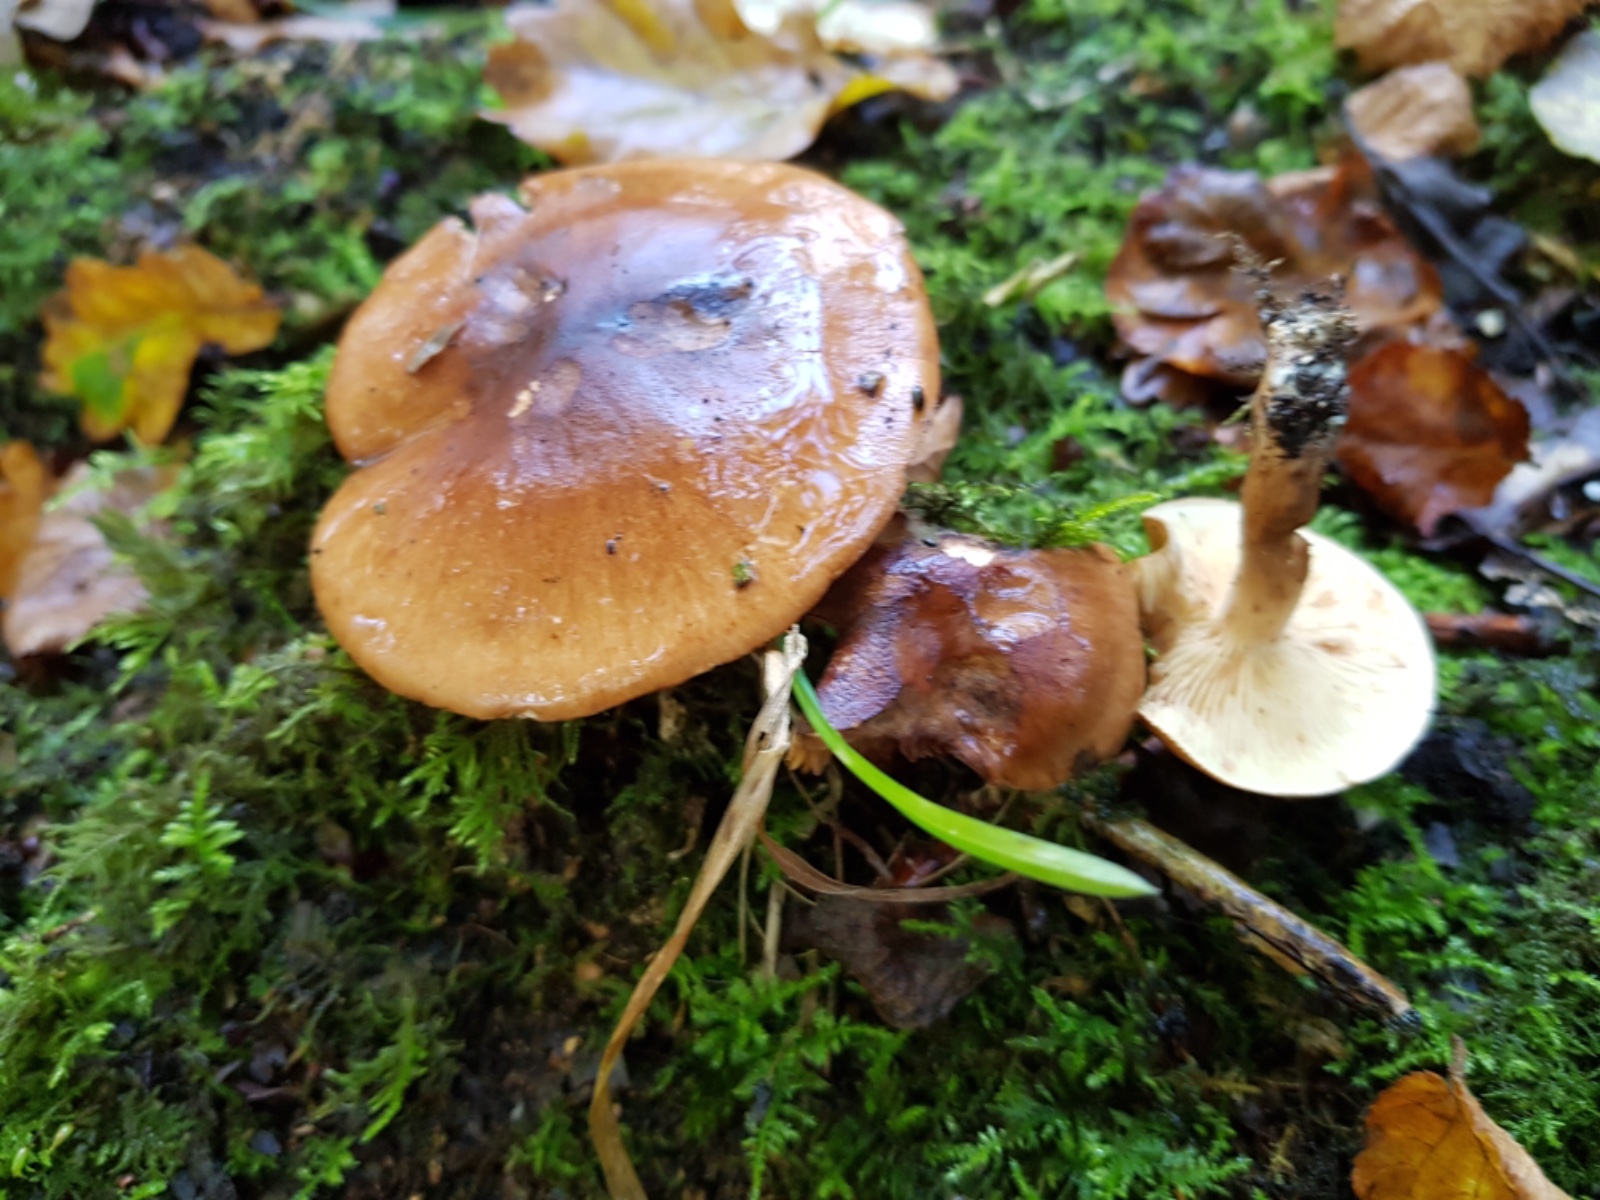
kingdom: Fungi
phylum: Basidiomycota
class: Agaricomycetes
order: Agaricales
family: Tricholomataceae
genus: Tricholoma
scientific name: Tricholoma
